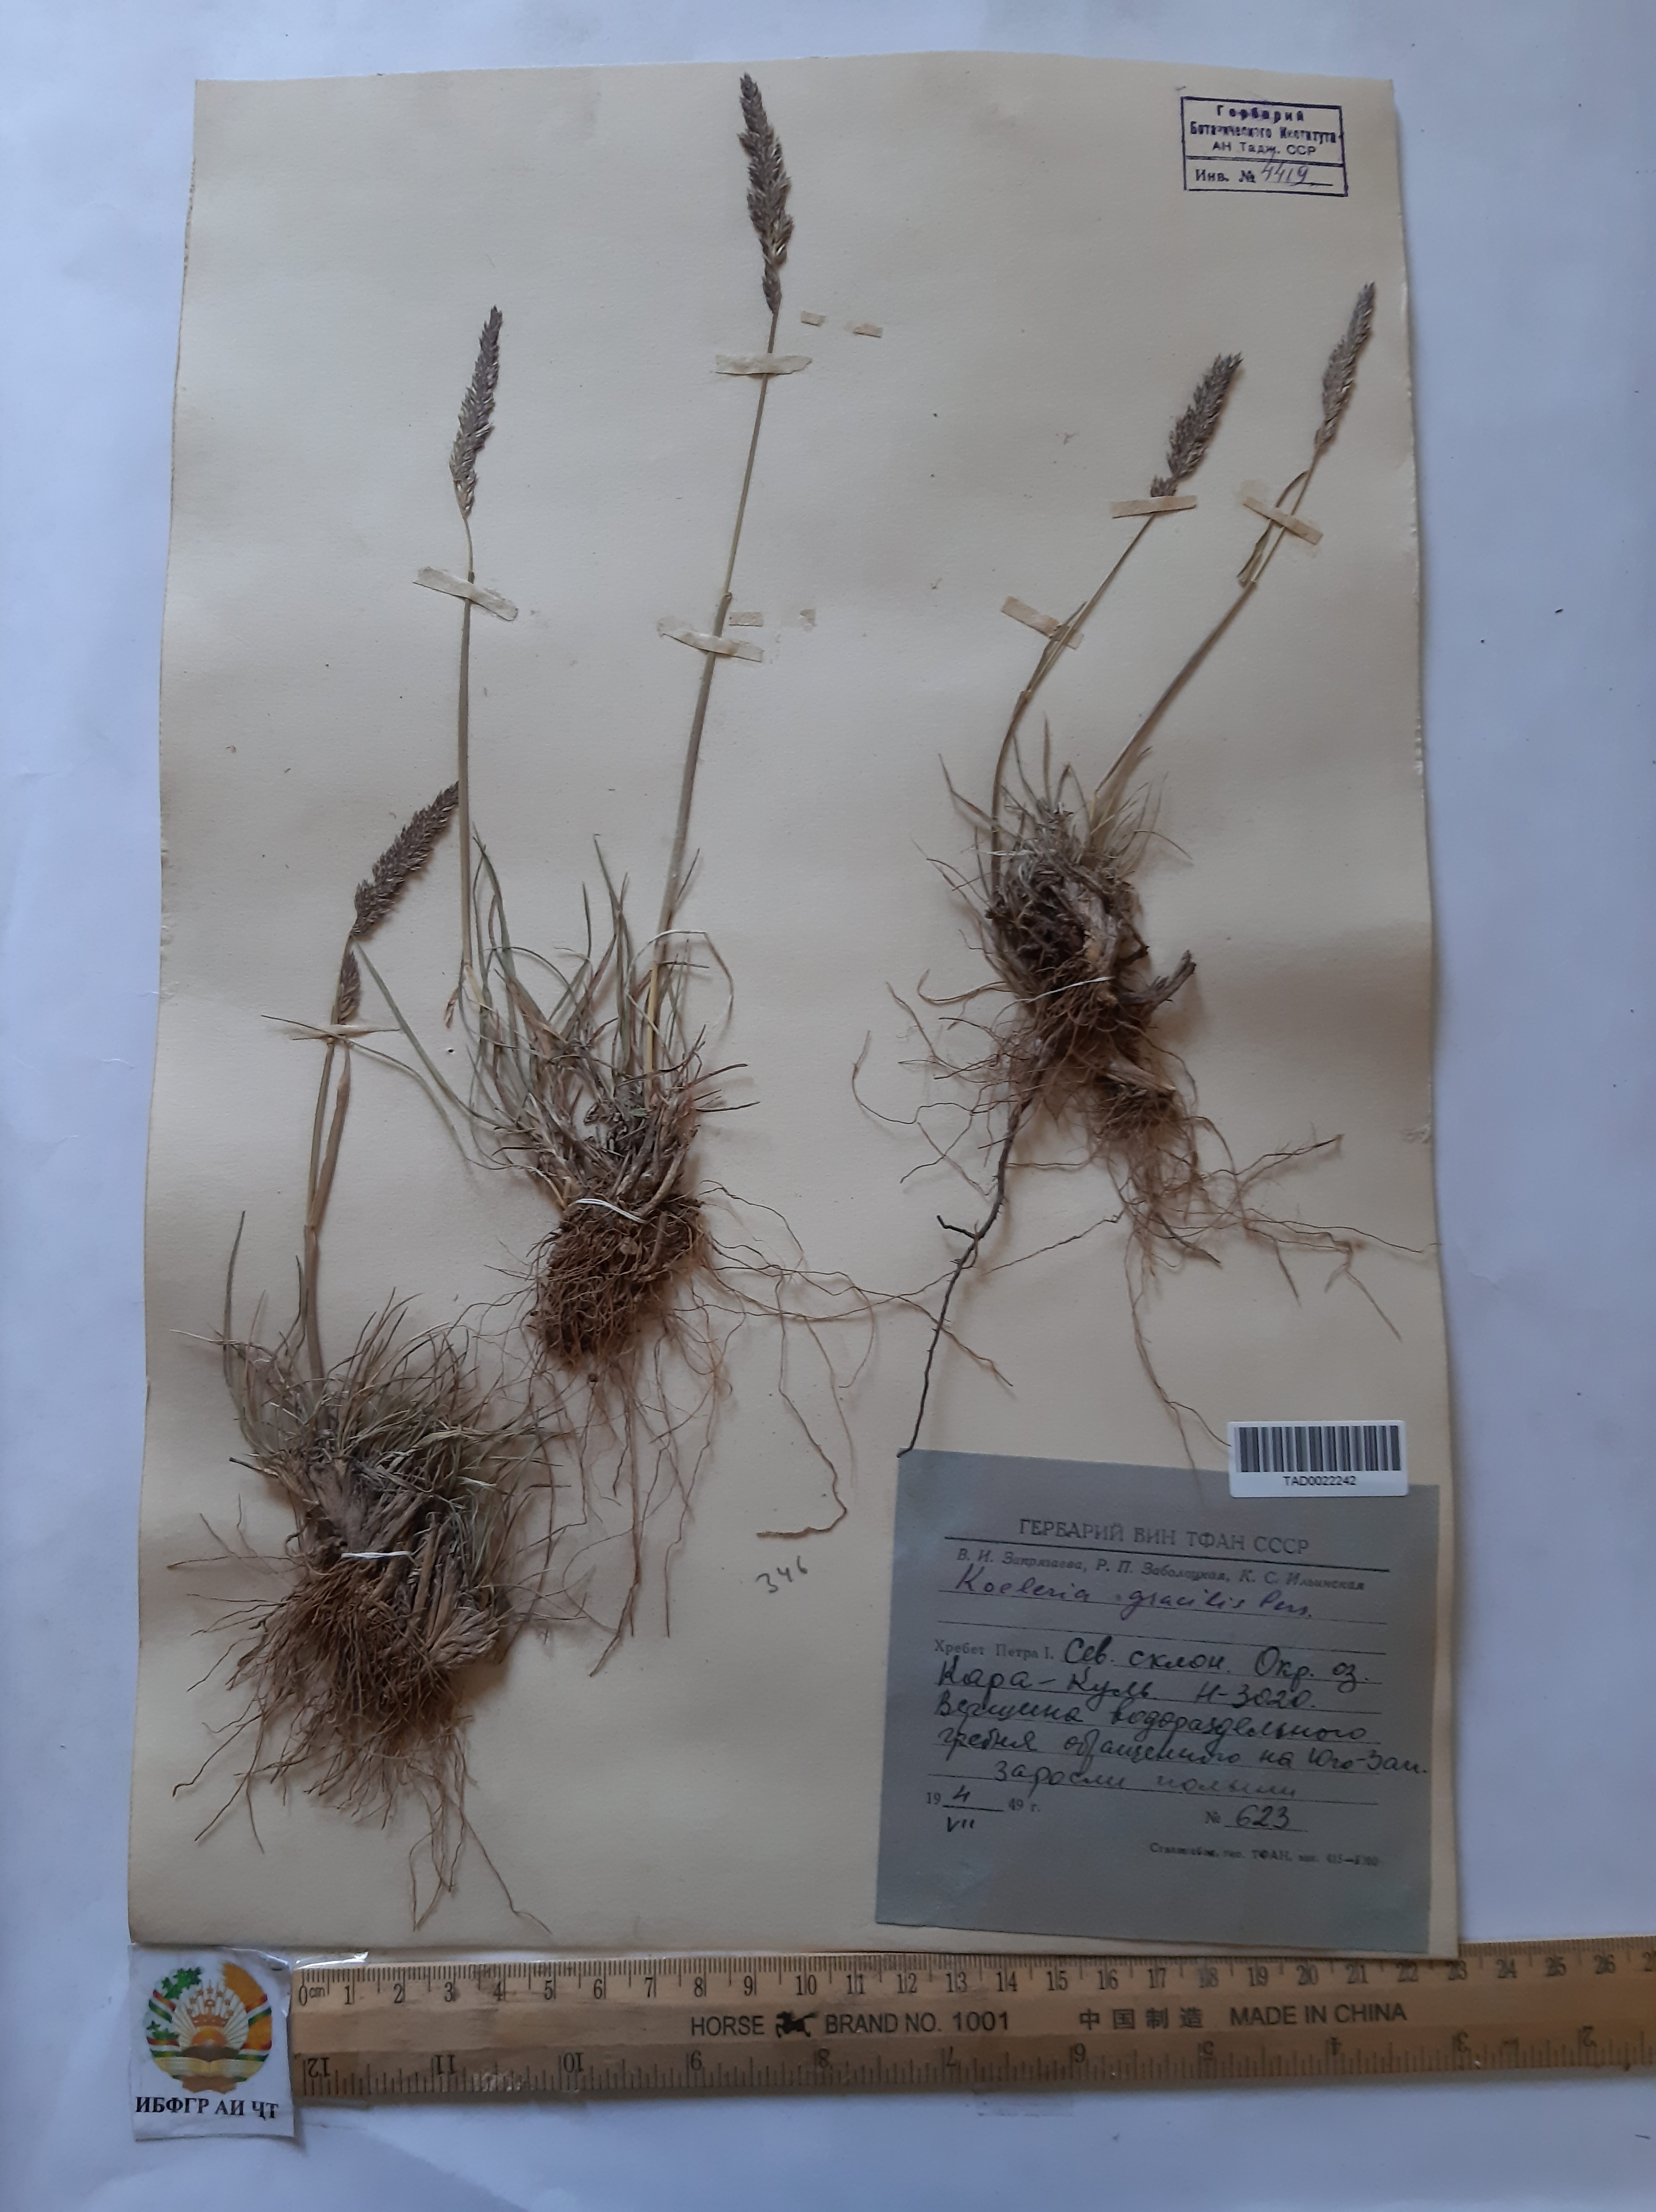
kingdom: Plantae
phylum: Tracheophyta
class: Liliopsida
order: Poales
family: Poaceae
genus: Koeleria
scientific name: Koeleria macrantha
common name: Crested hair-grass
